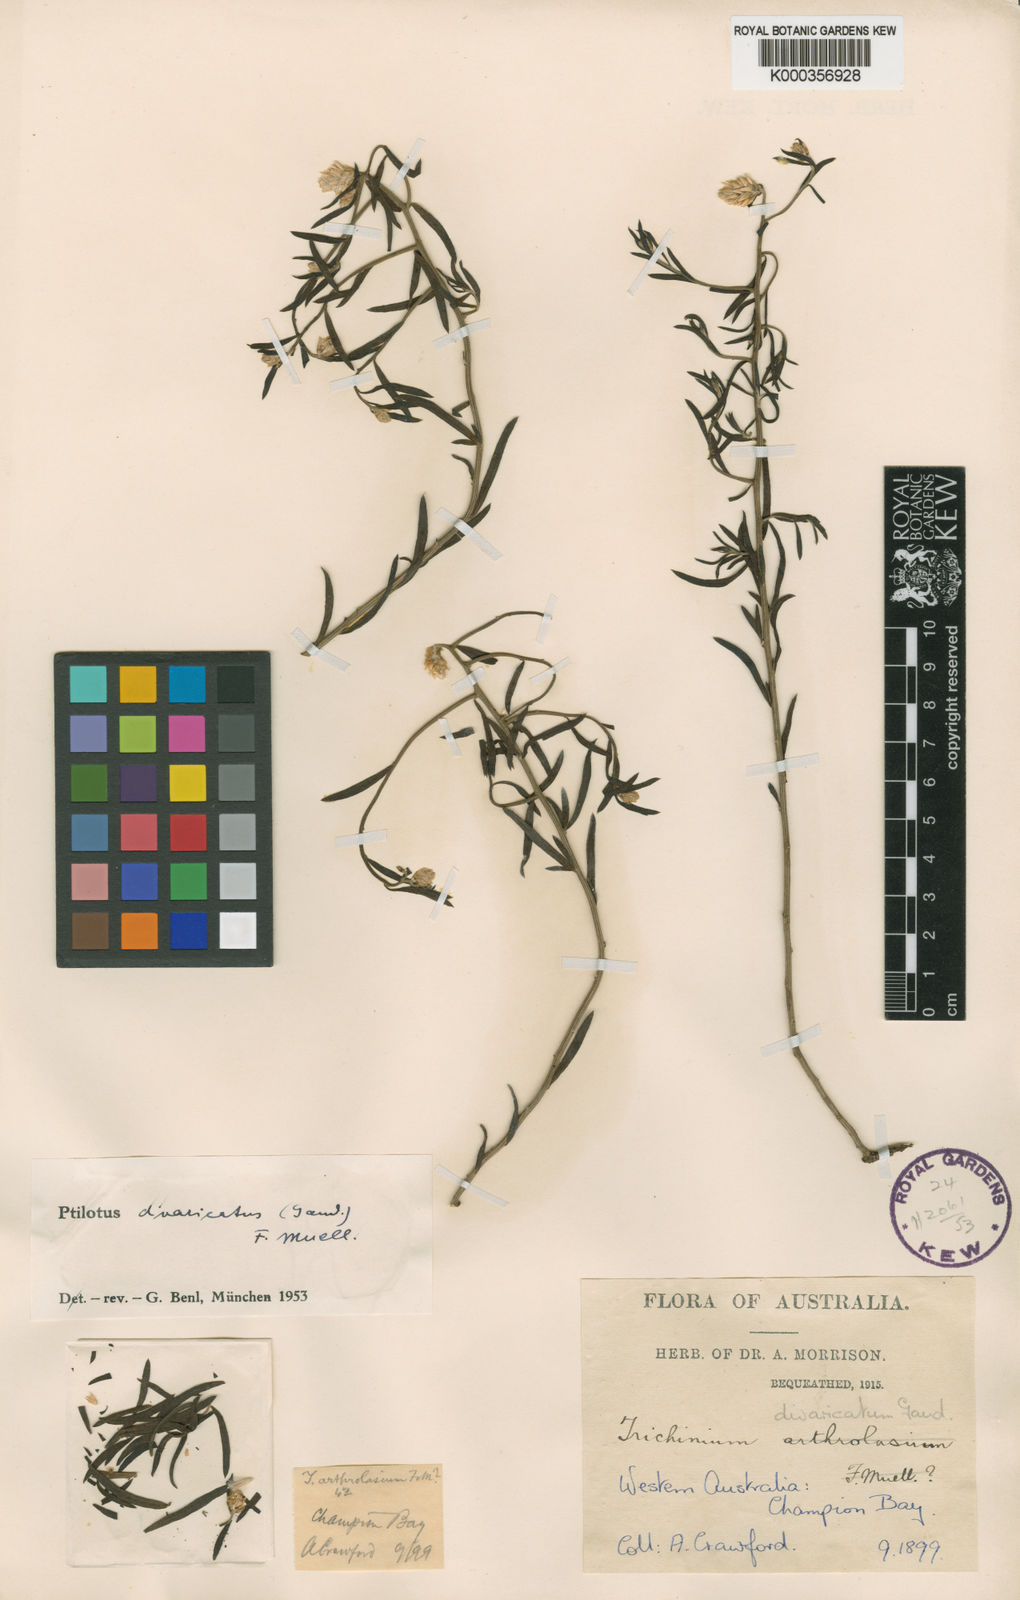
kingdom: Plantae
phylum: Tracheophyta
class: Magnoliopsida
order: Caryophyllales
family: Amaranthaceae
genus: Ptilotus
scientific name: Ptilotus divaricatus
